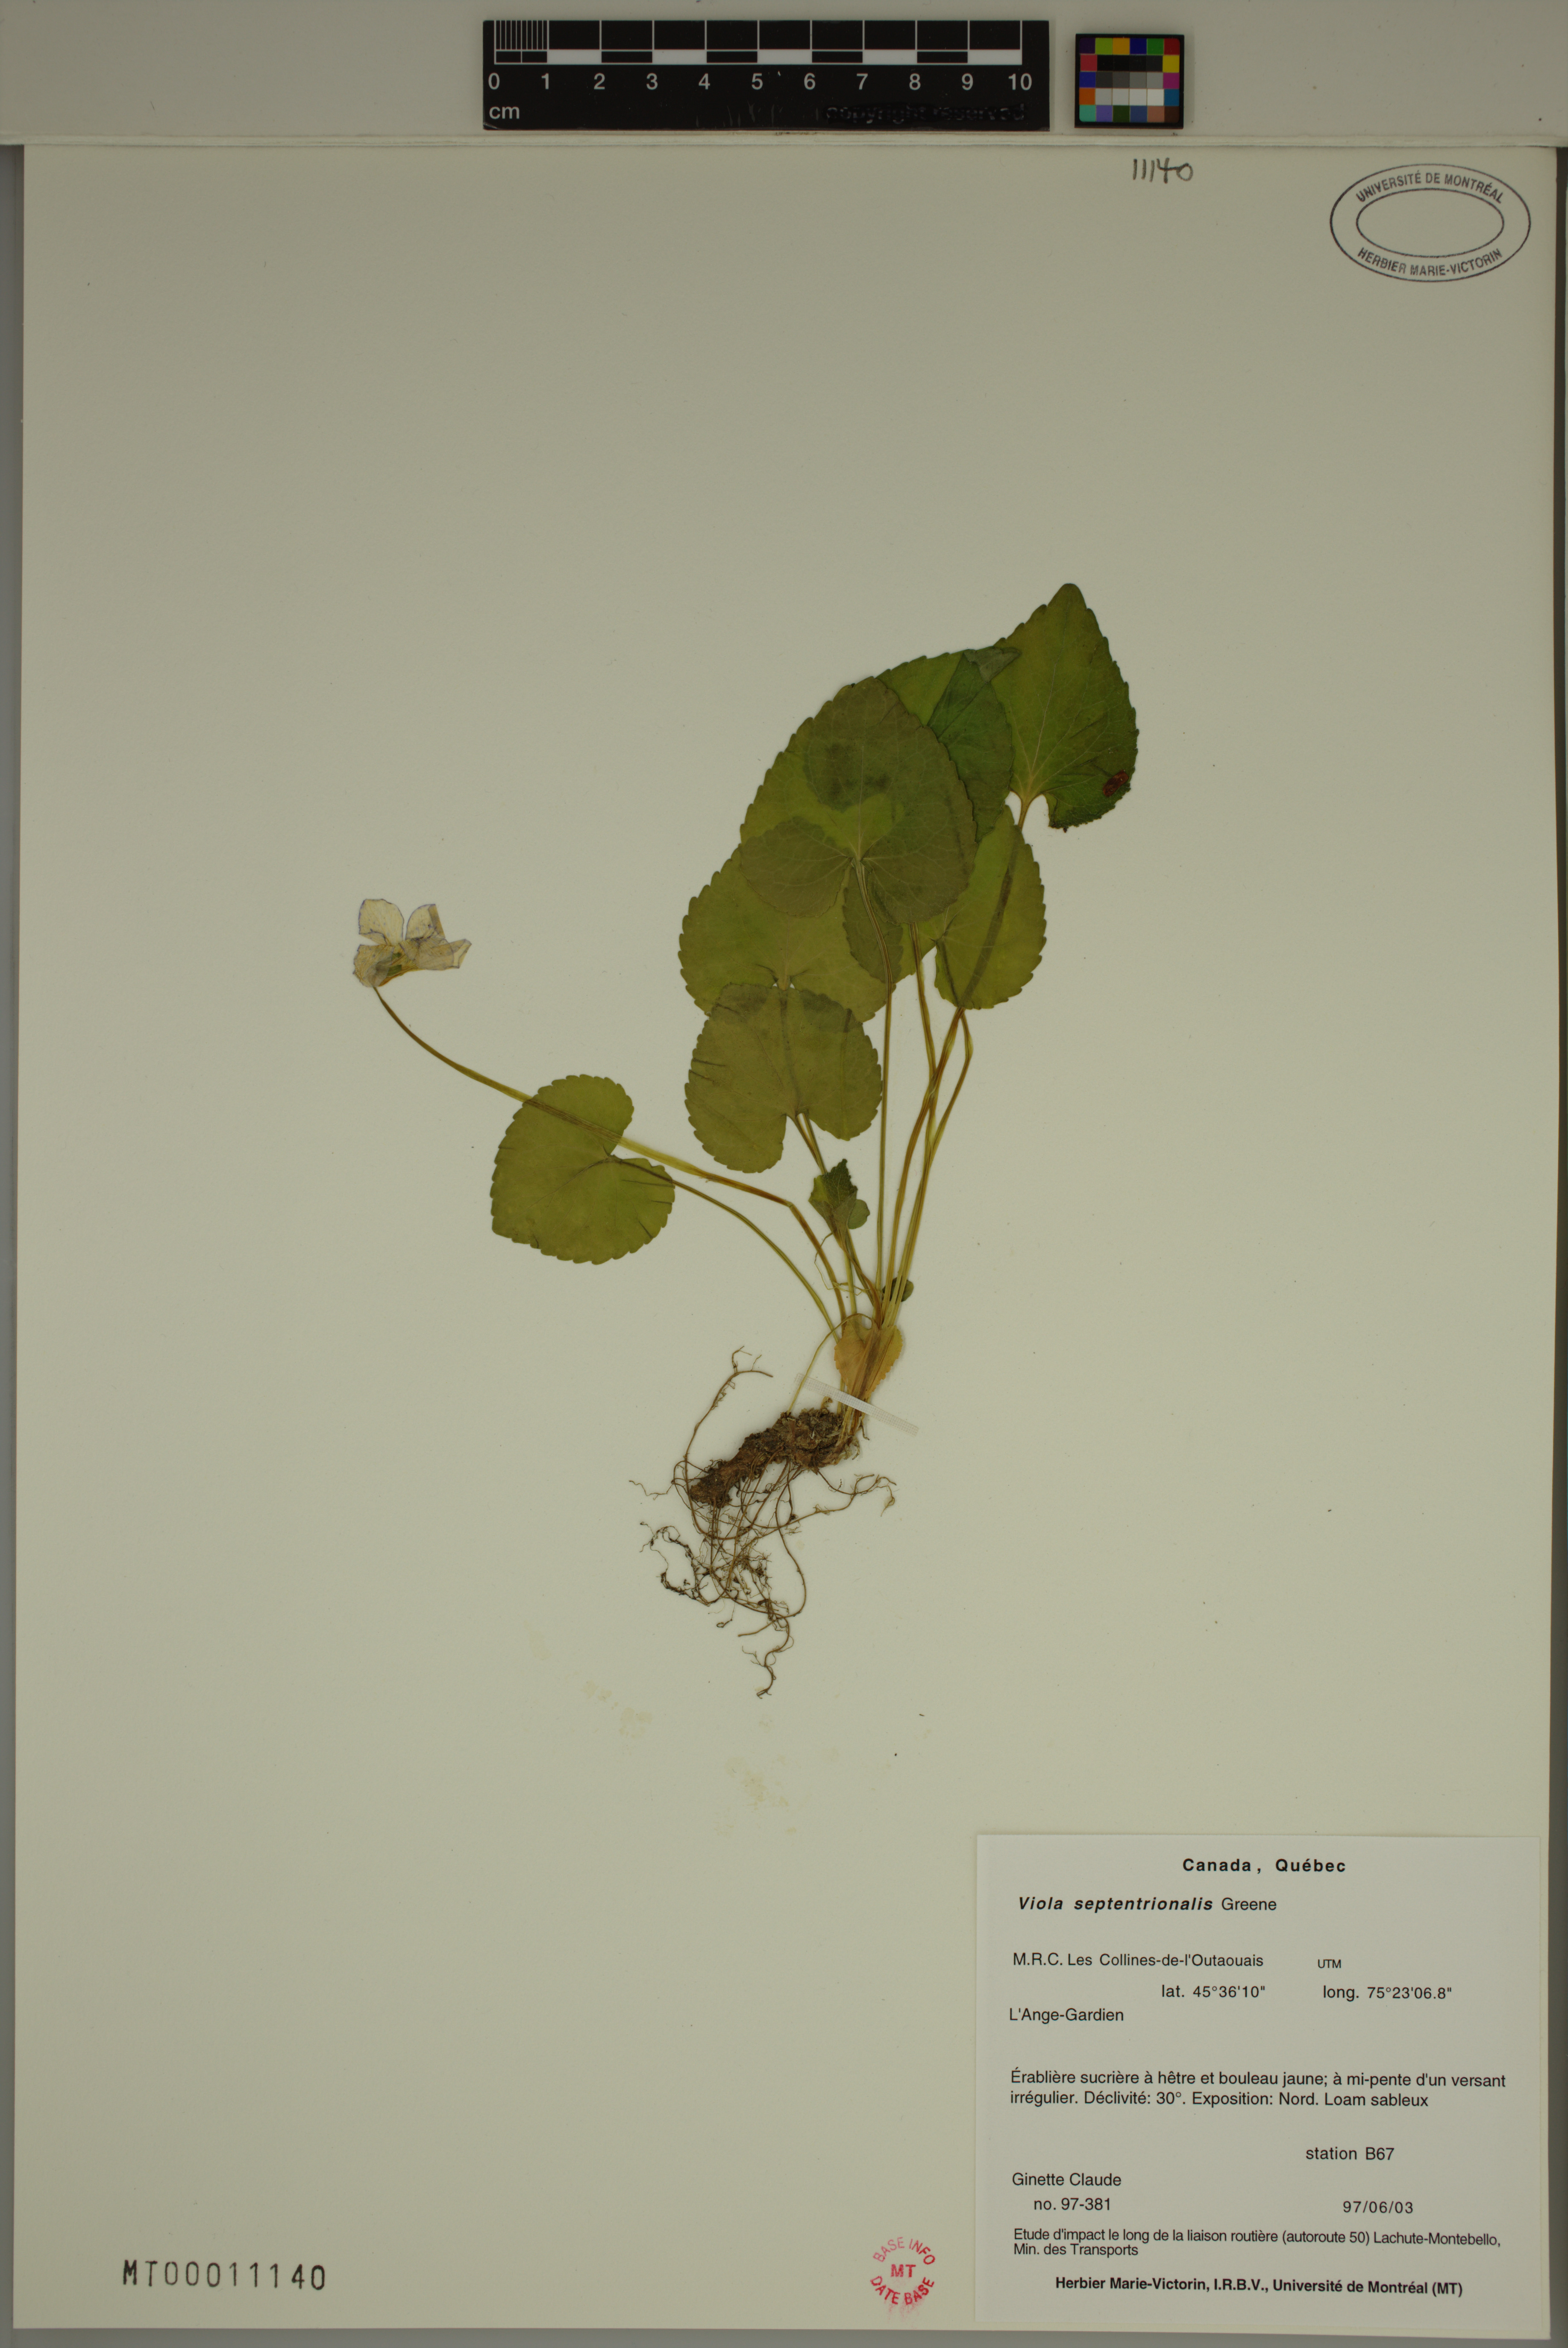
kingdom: Plantae
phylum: Tracheophyta
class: Magnoliopsida
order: Malpighiales
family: Violaceae
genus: Viola
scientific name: Viola sororia
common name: Dooryard violet
